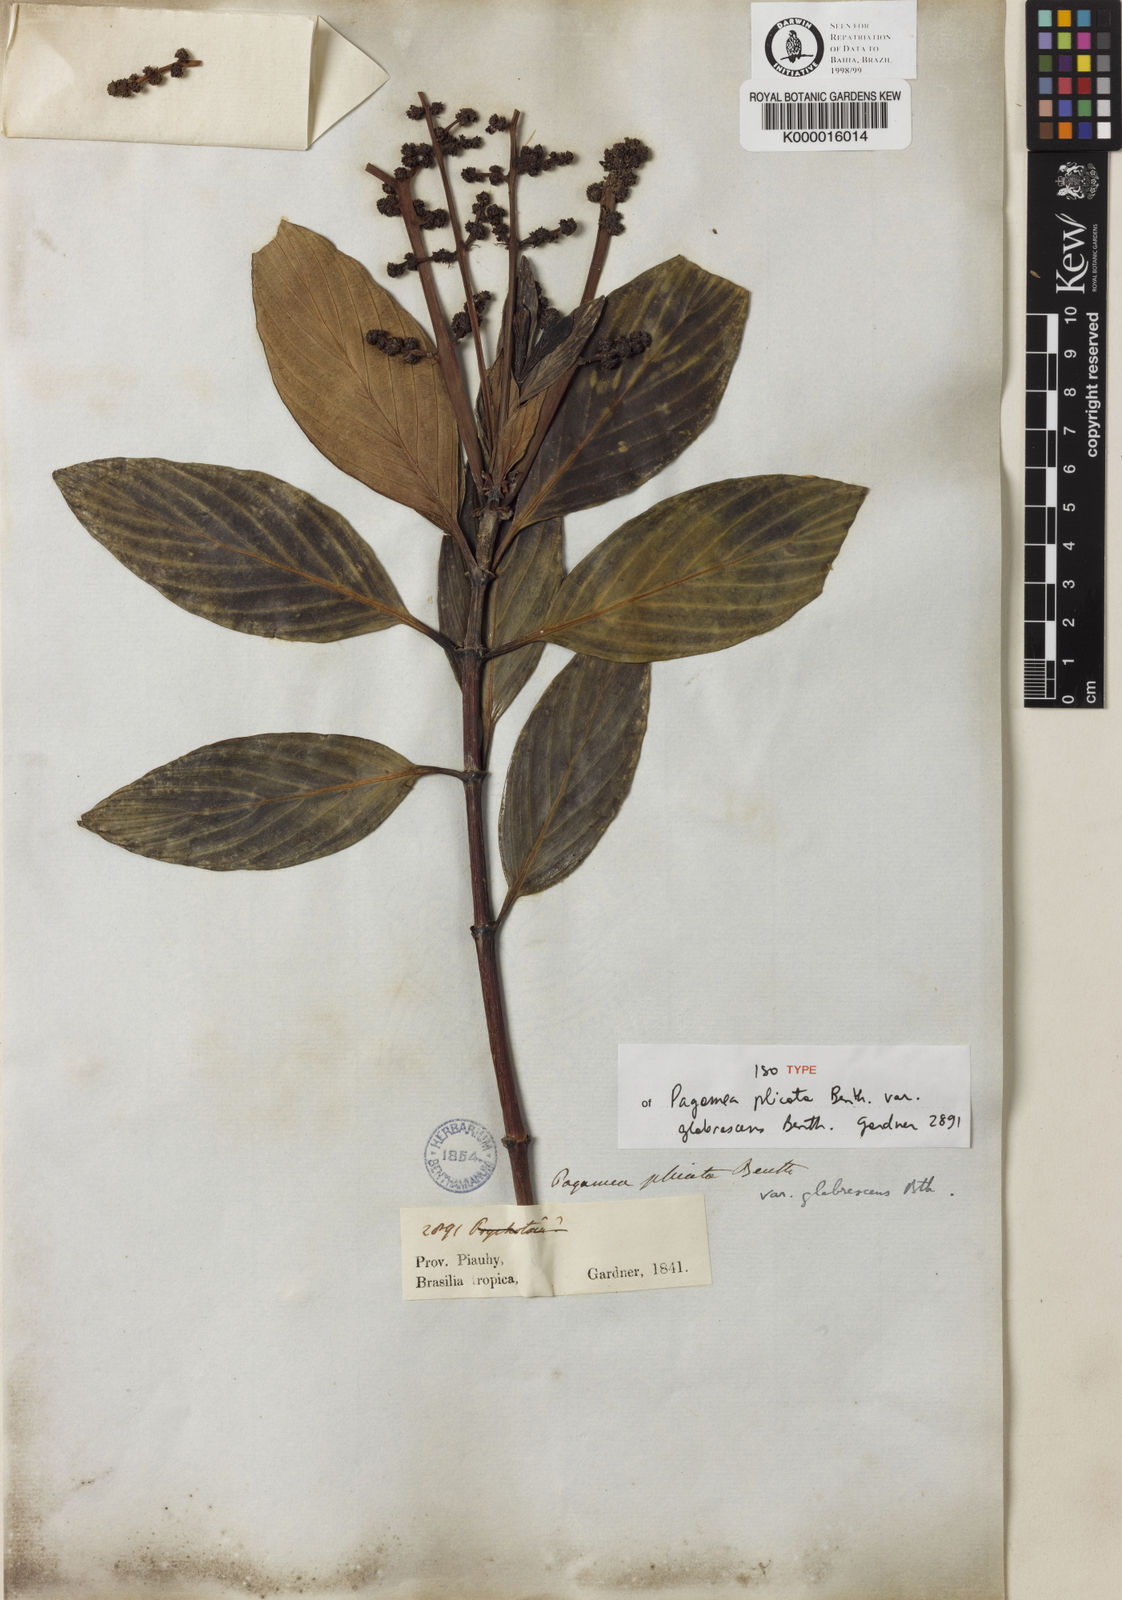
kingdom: Plantae
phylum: Tracheophyta
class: Magnoliopsida
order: Gentianales
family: Rubiaceae
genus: Pagamea
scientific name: Pagamea plicata
